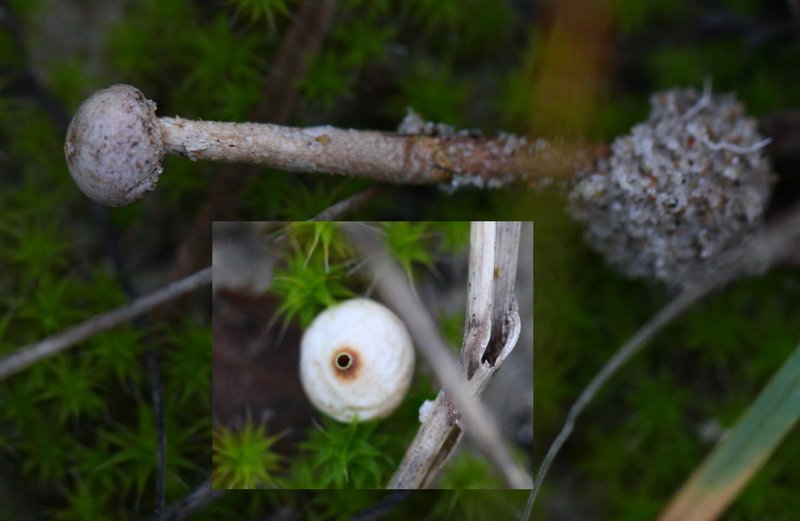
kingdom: Fungi
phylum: Basidiomycota
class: Agaricomycetes
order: Agaricales
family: Agaricaceae
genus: Tulostoma
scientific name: Tulostoma brumale
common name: vinter-stilkbovist
